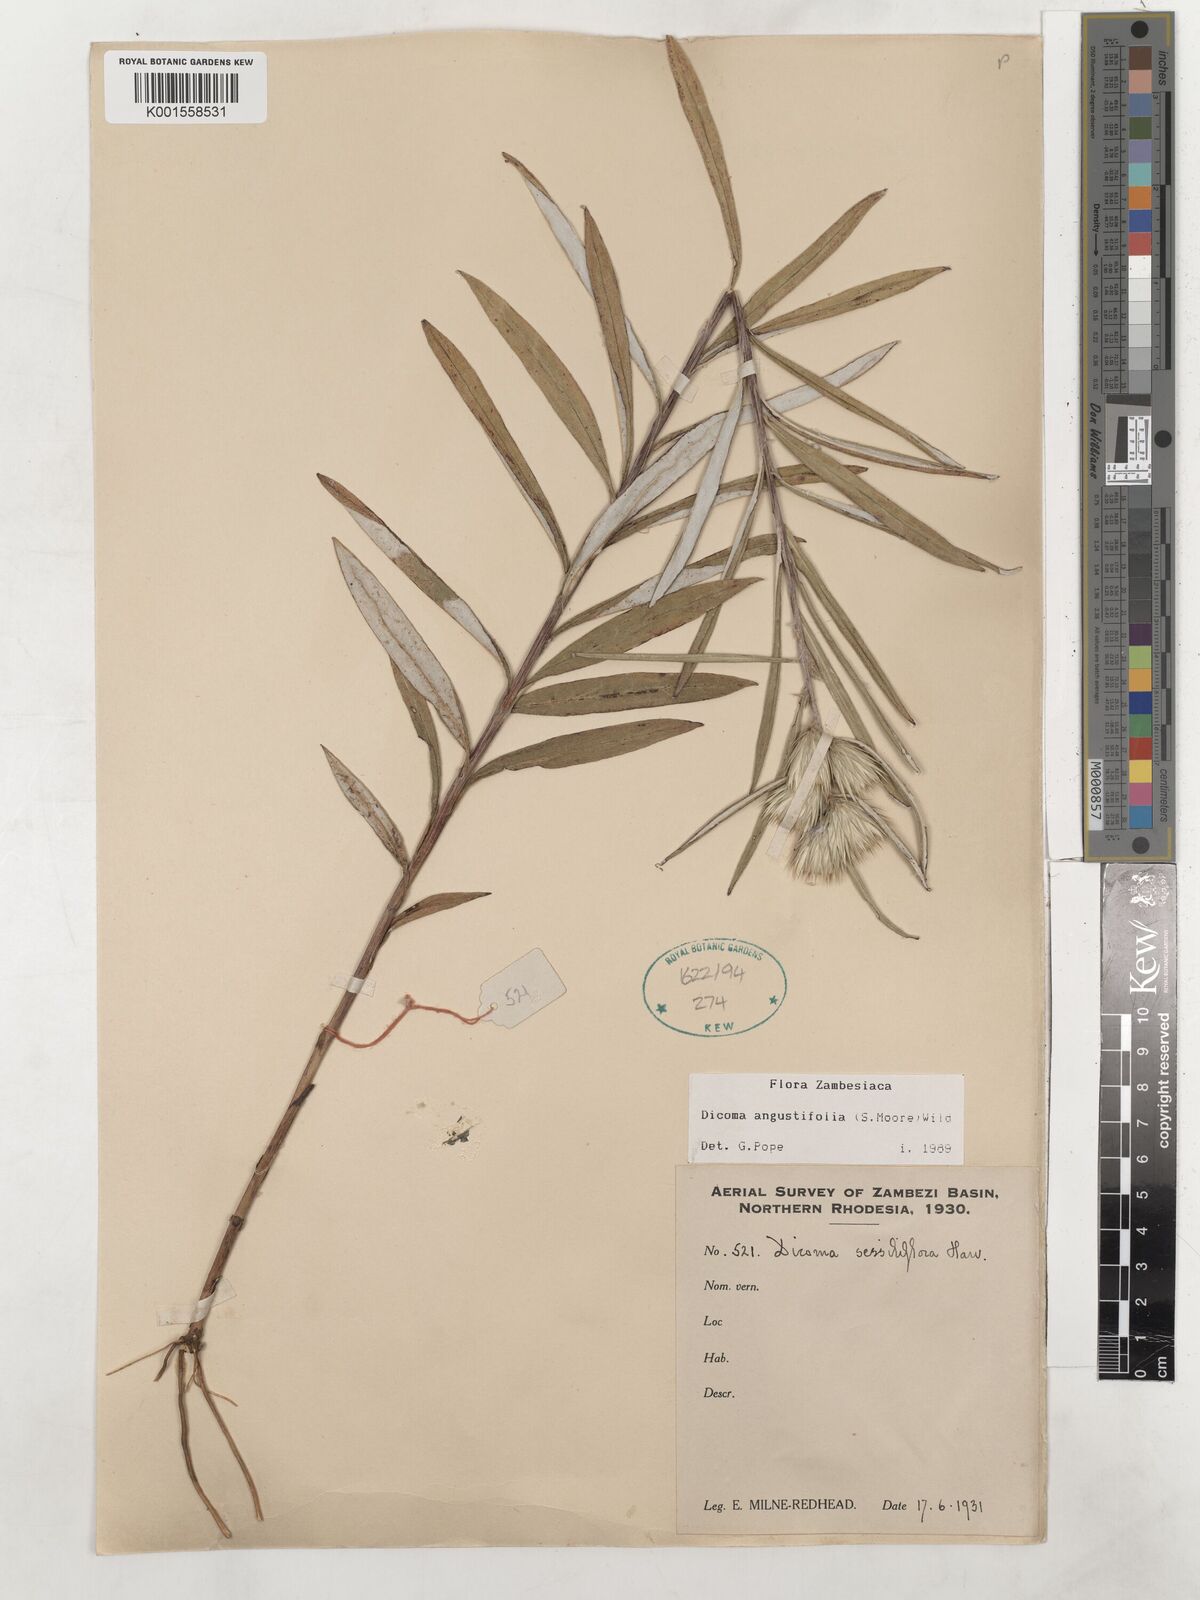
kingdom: Plantae
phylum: Tracheophyta
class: Magnoliopsida
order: Asterales
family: Asteraceae
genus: Macledium
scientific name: Macledium poggei
